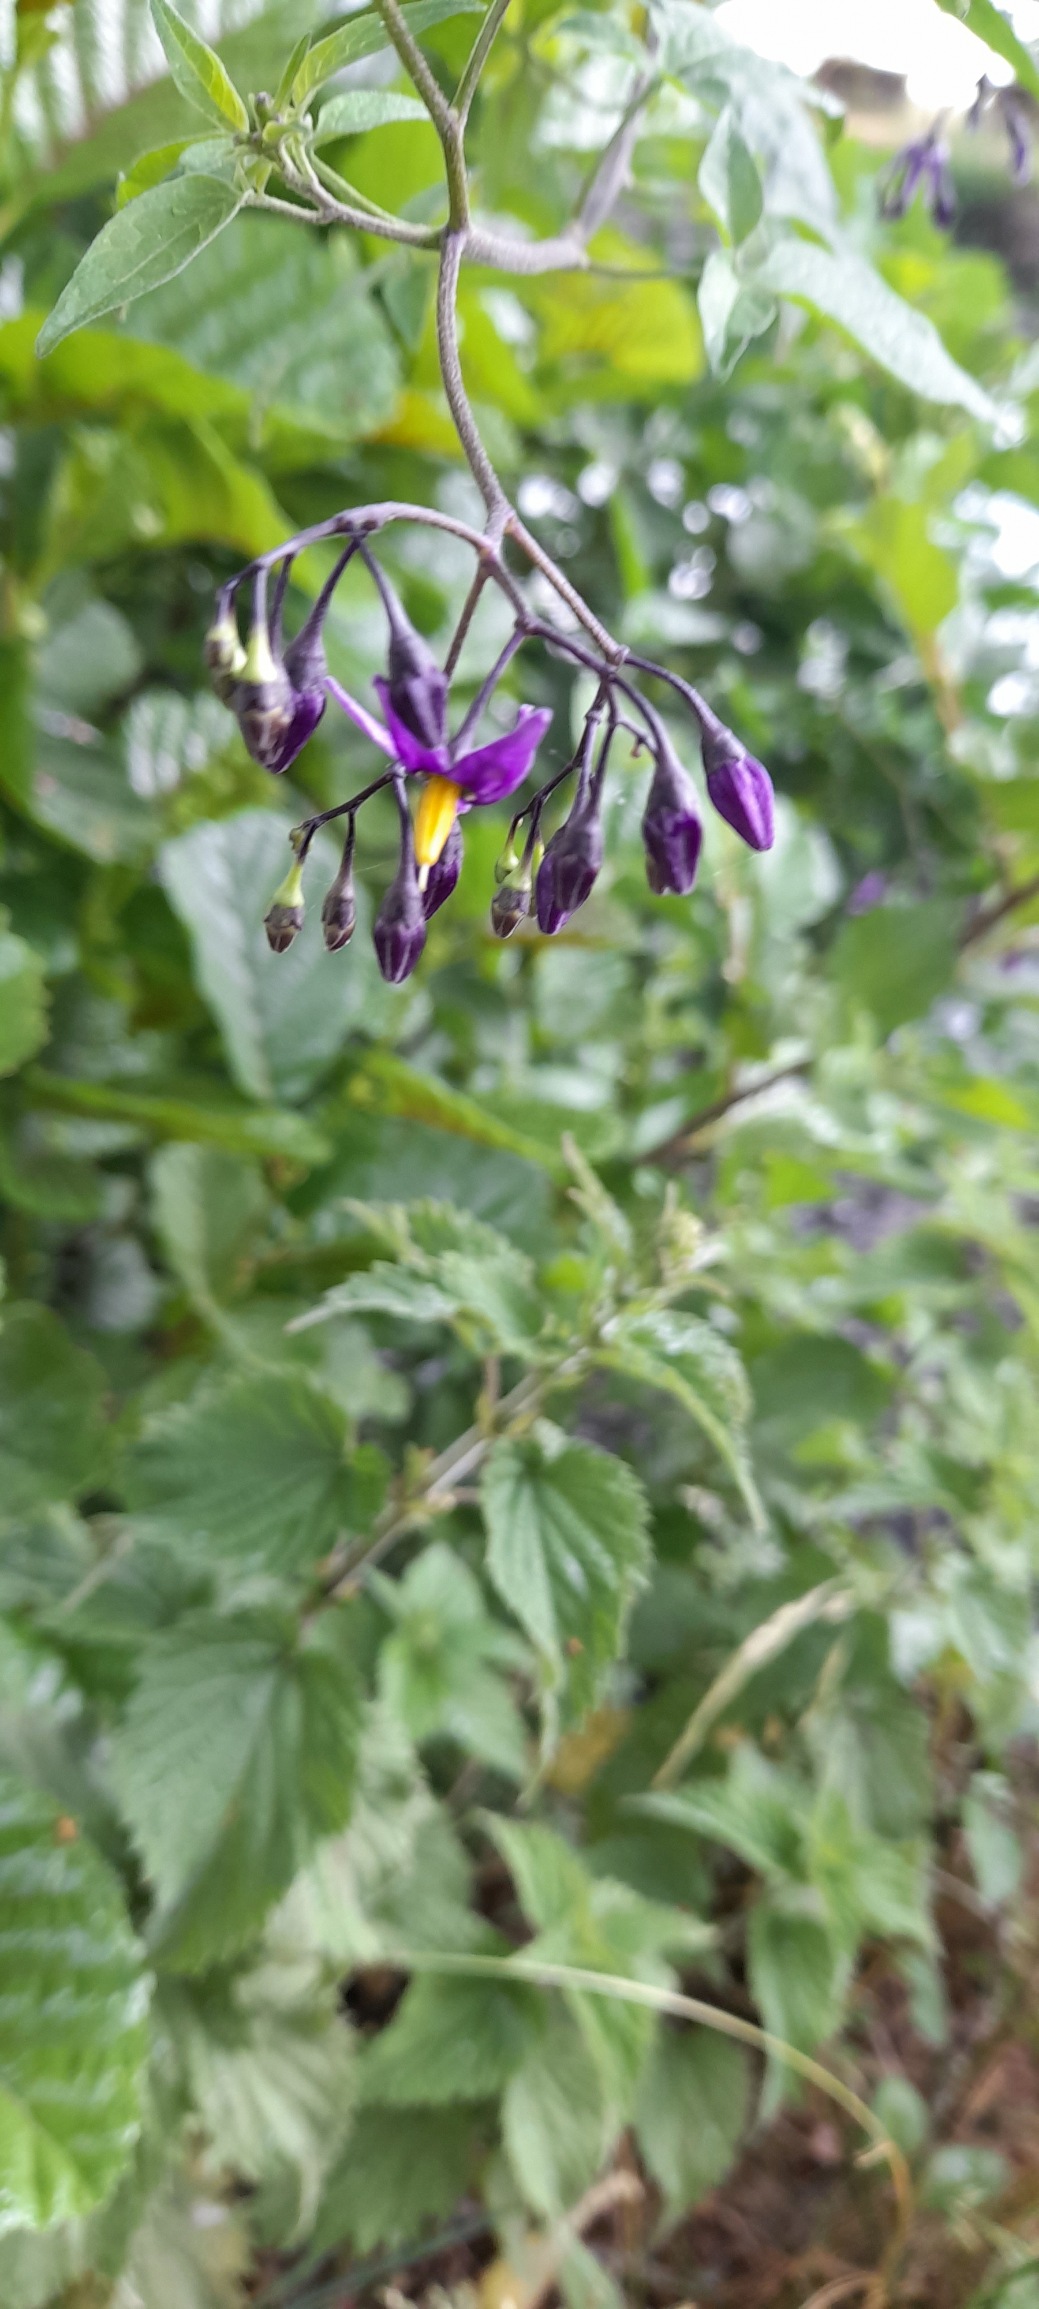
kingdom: Plantae
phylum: Tracheophyta
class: Magnoliopsida
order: Solanales
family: Solanaceae
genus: Solanum
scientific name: Solanum dulcamara
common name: Bittersød natskygge
